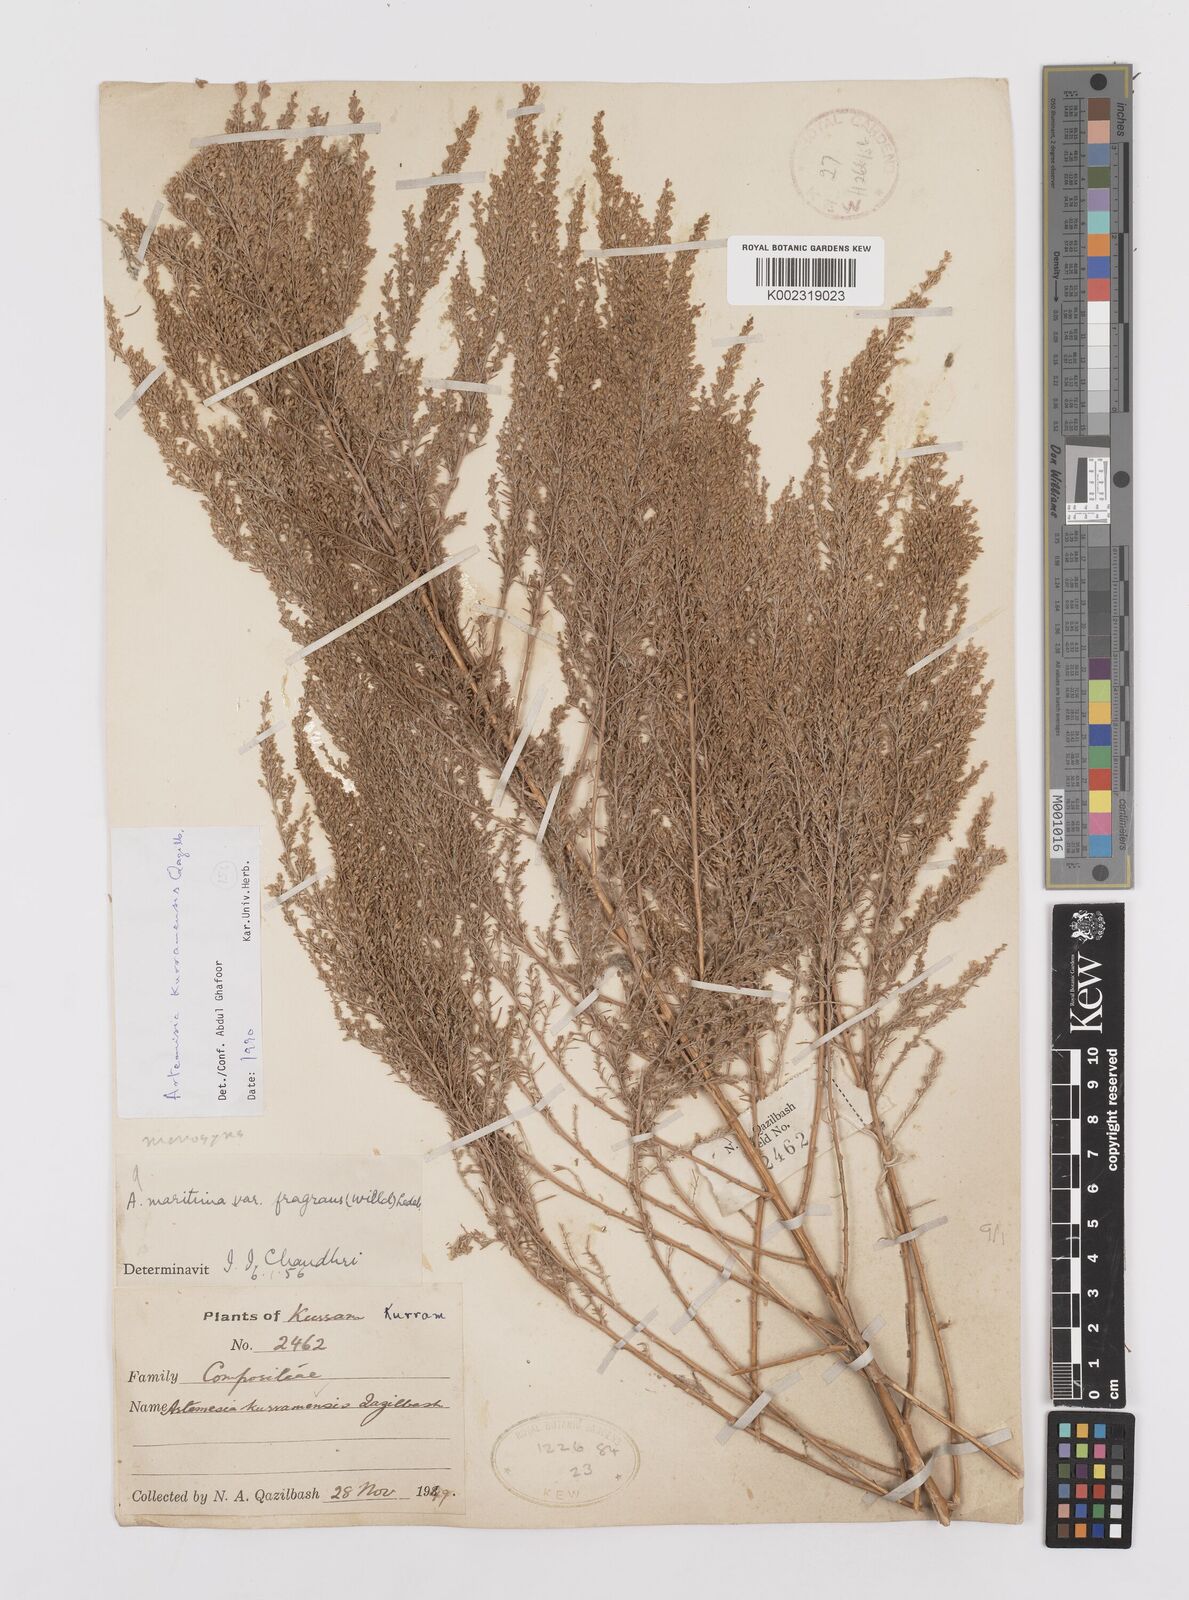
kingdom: Plantae
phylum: Tracheophyta
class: Magnoliopsida
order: Asterales
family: Asteraceae
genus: Artemisia
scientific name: Artemisia kurramensis
